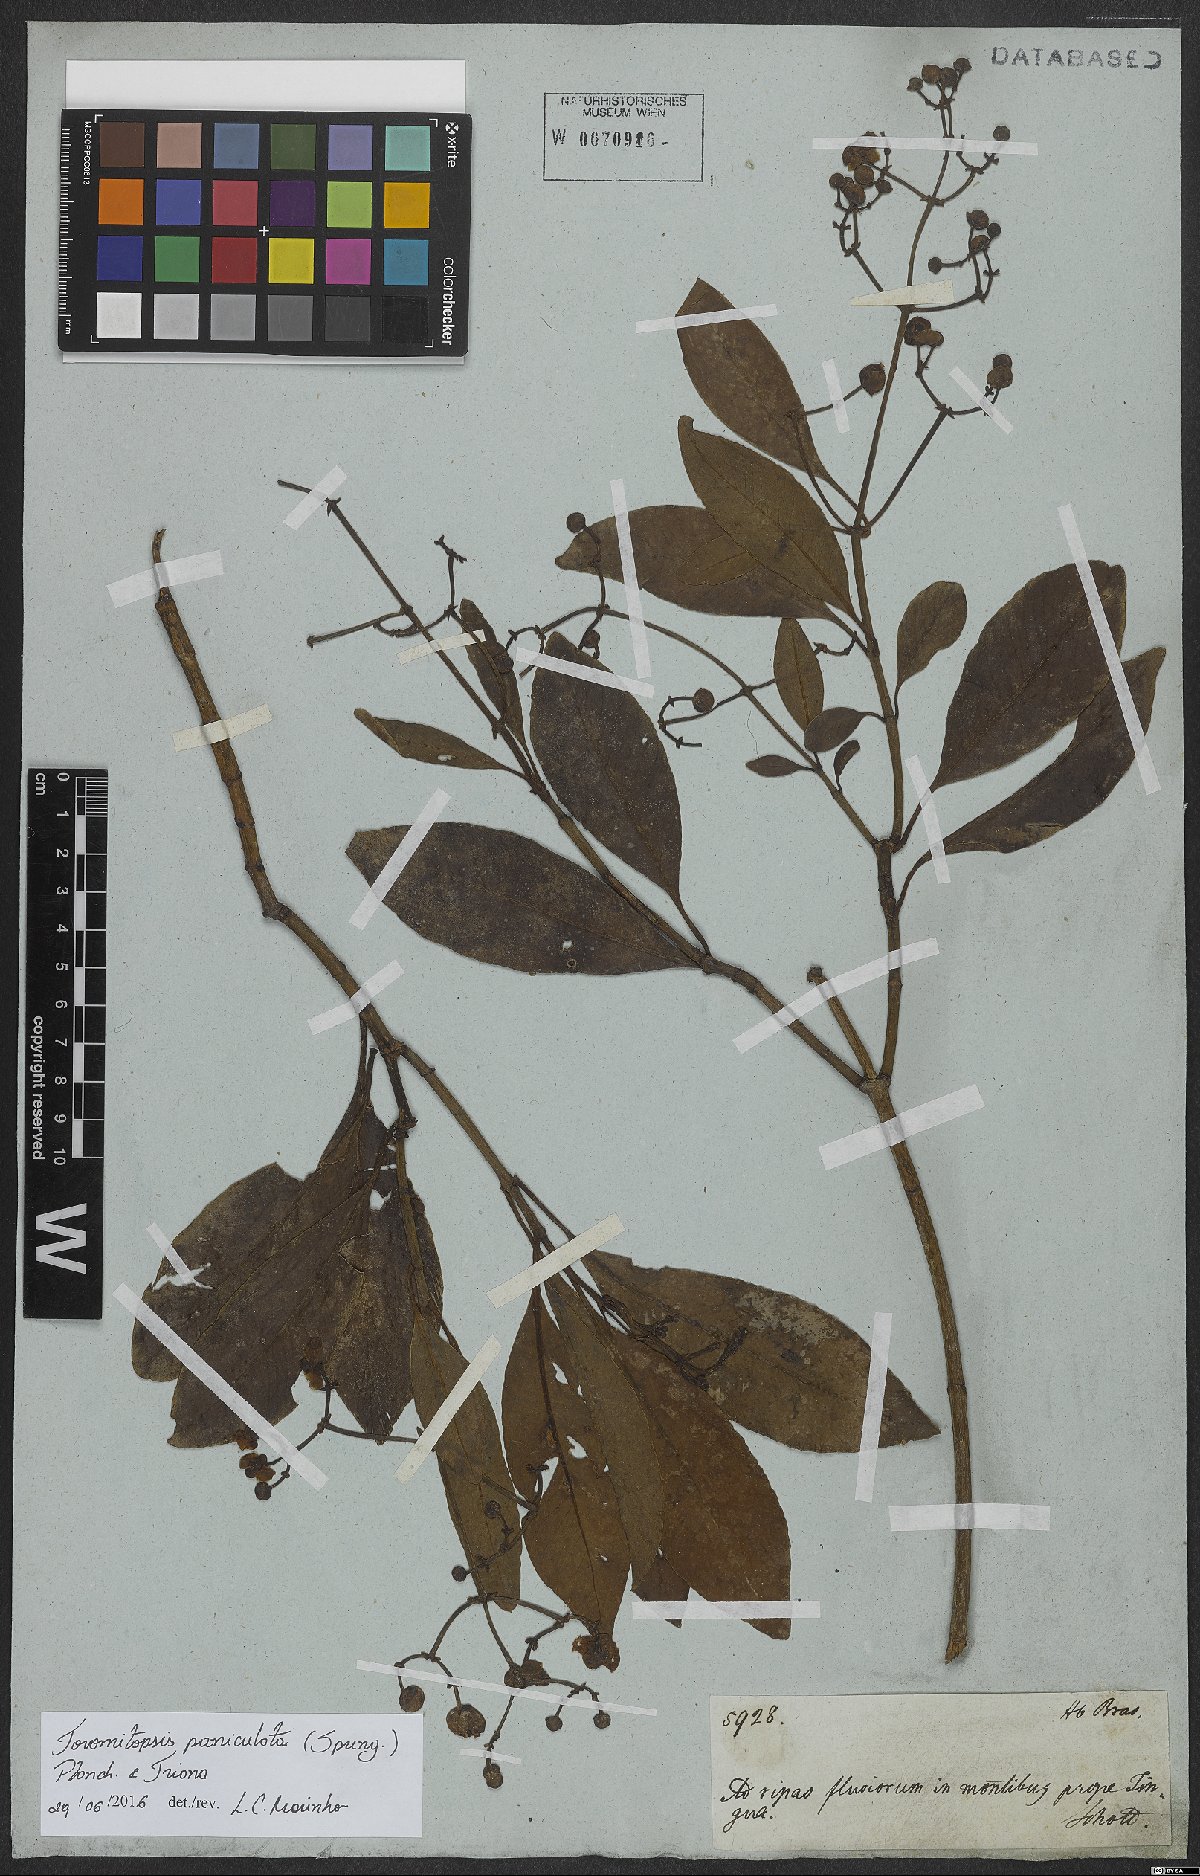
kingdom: Plantae
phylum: Tracheophyta
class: Magnoliopsida
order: Malpighiales
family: Clusiaceae
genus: Chrysochlamys
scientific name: Chrysochlamys paniculata
